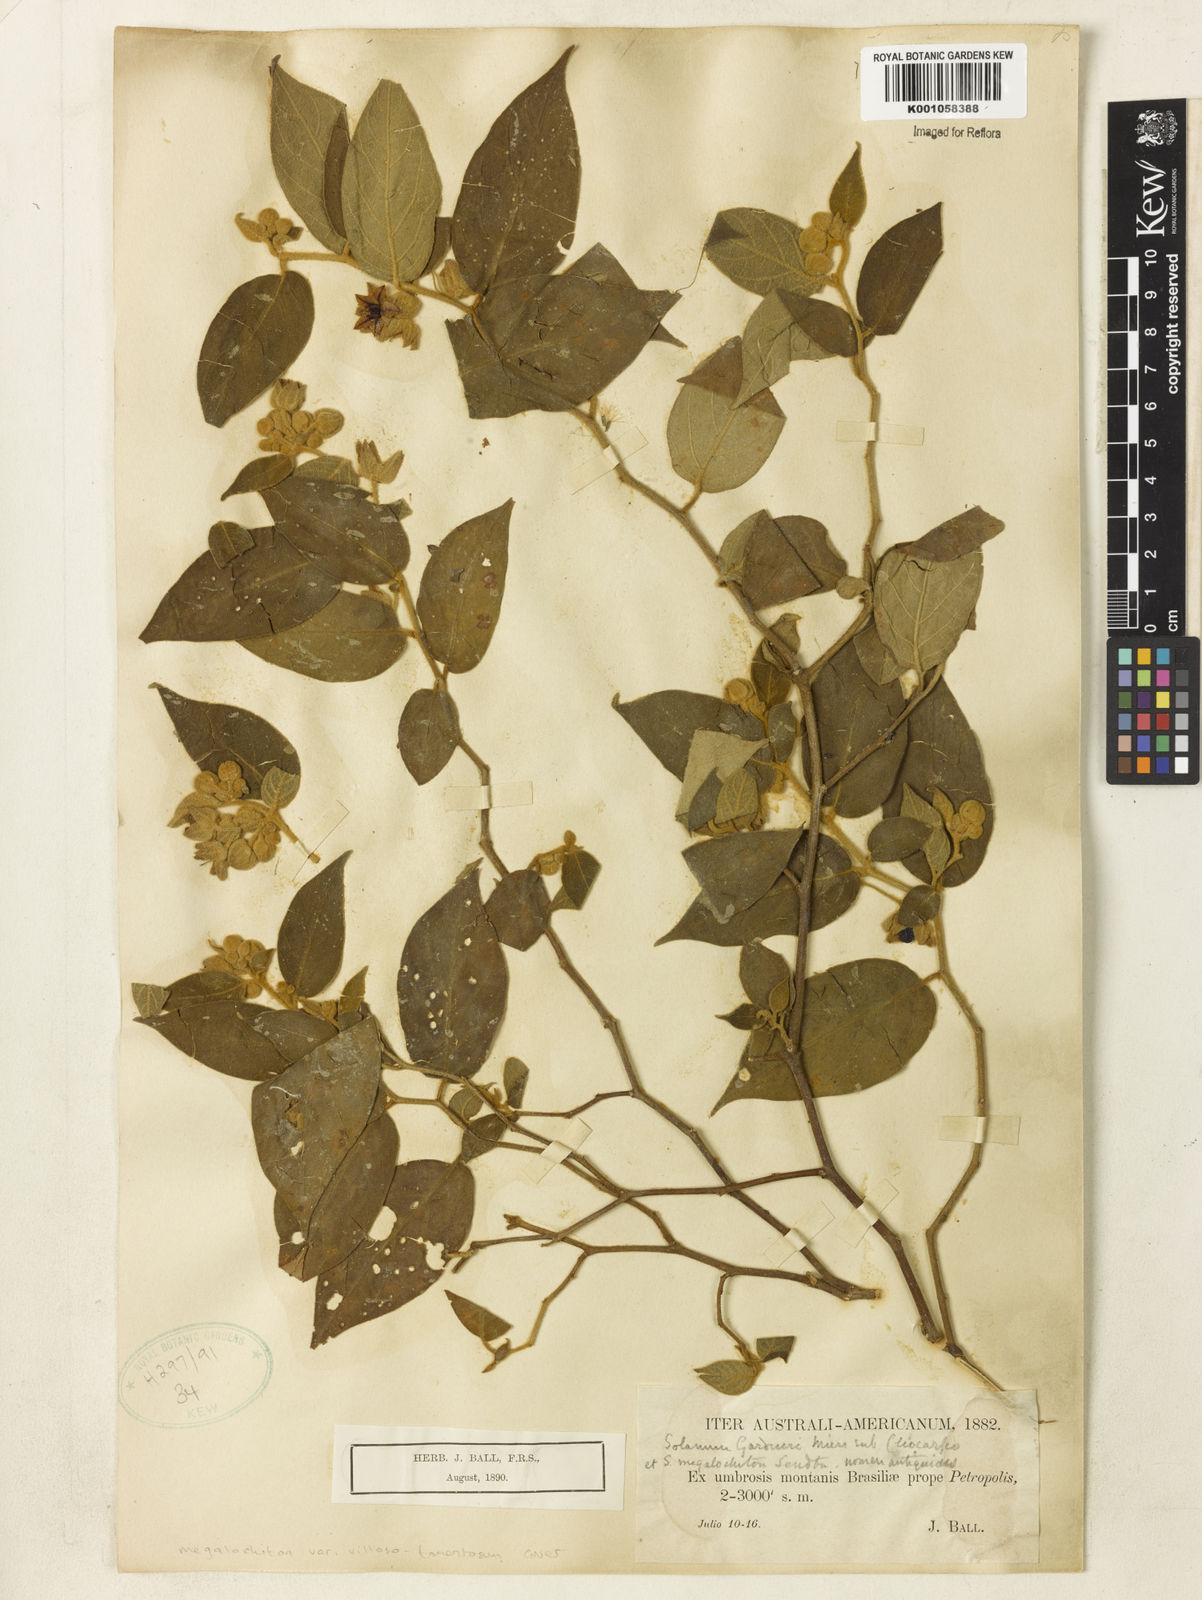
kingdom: Plantae
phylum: Tracheophyta
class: Magnoliopsida
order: Solanales
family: Solanaceae
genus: Solanum
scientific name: Solanum didymum
